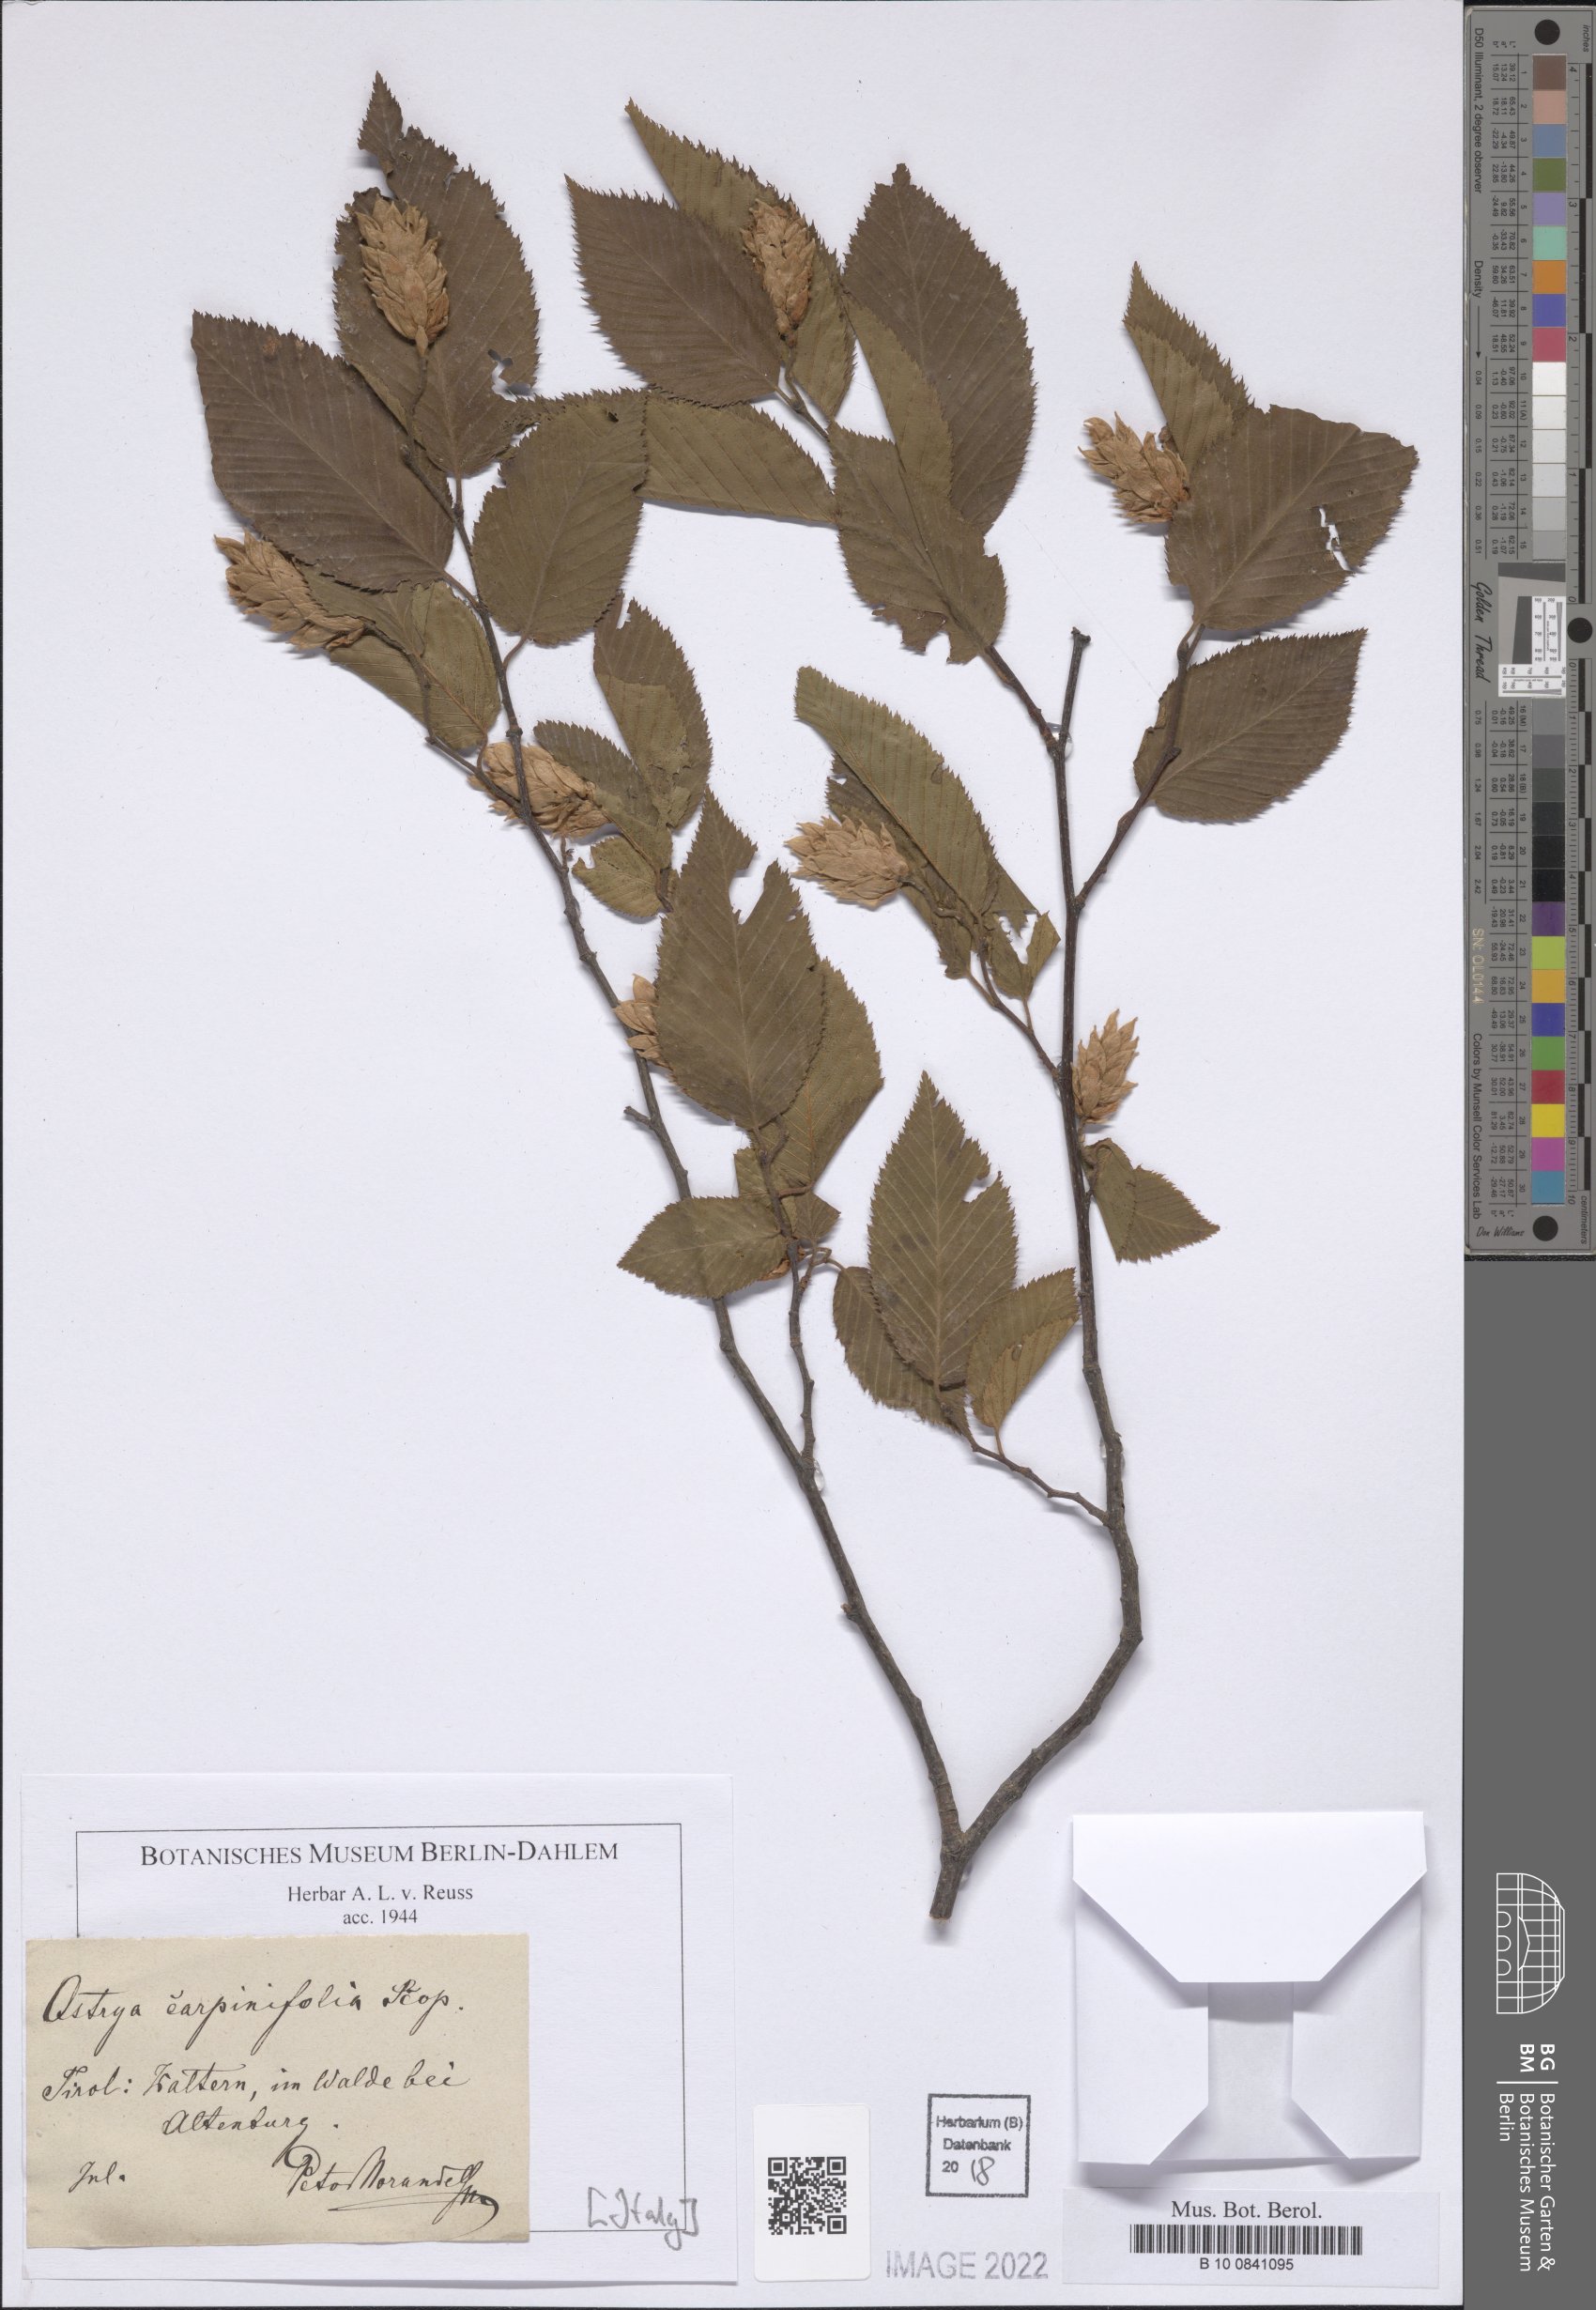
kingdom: Plantae
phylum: Tracheophyta
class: Magnoliopsida
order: Fagales
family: Betulaceae
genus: Ostrya
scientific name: Ostrya carpinifolia
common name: European hop-hornbeam
